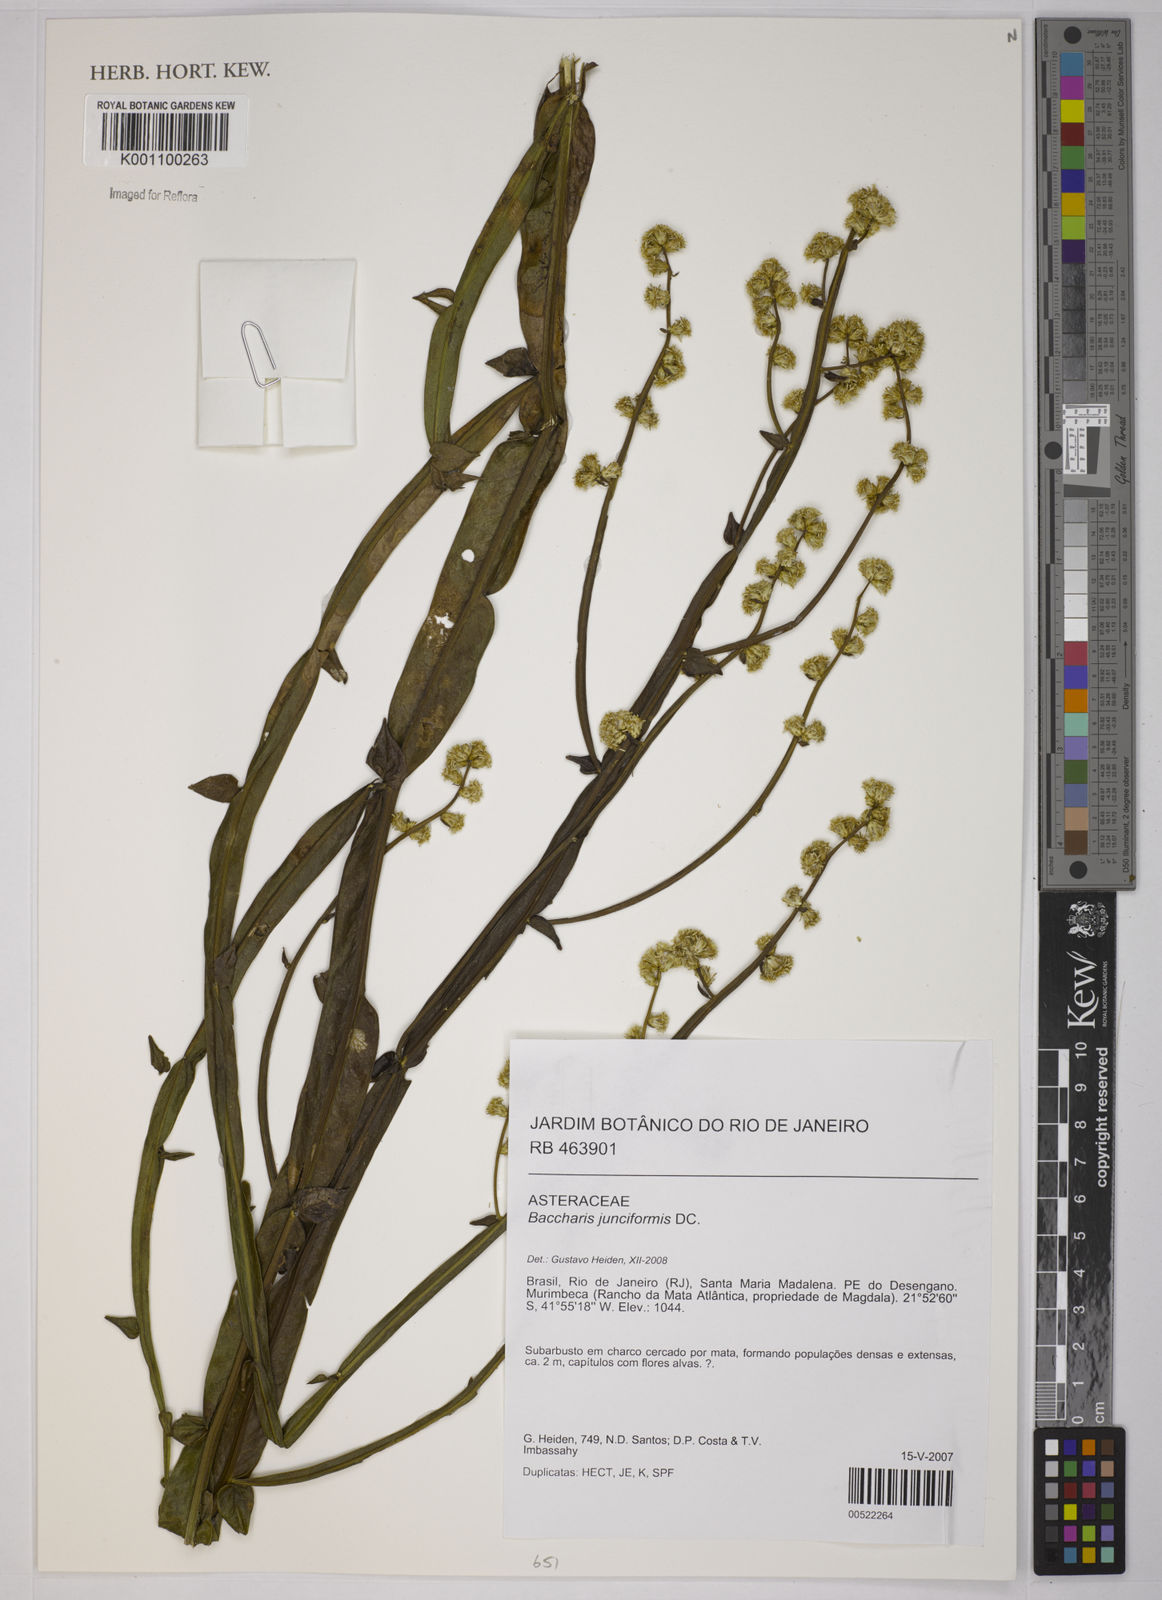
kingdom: Plantae
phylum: Tracheophyta
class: Magnoliopsida
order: Asterales
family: Asteraceae
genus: Baccharis
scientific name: Baccharis junciformis
